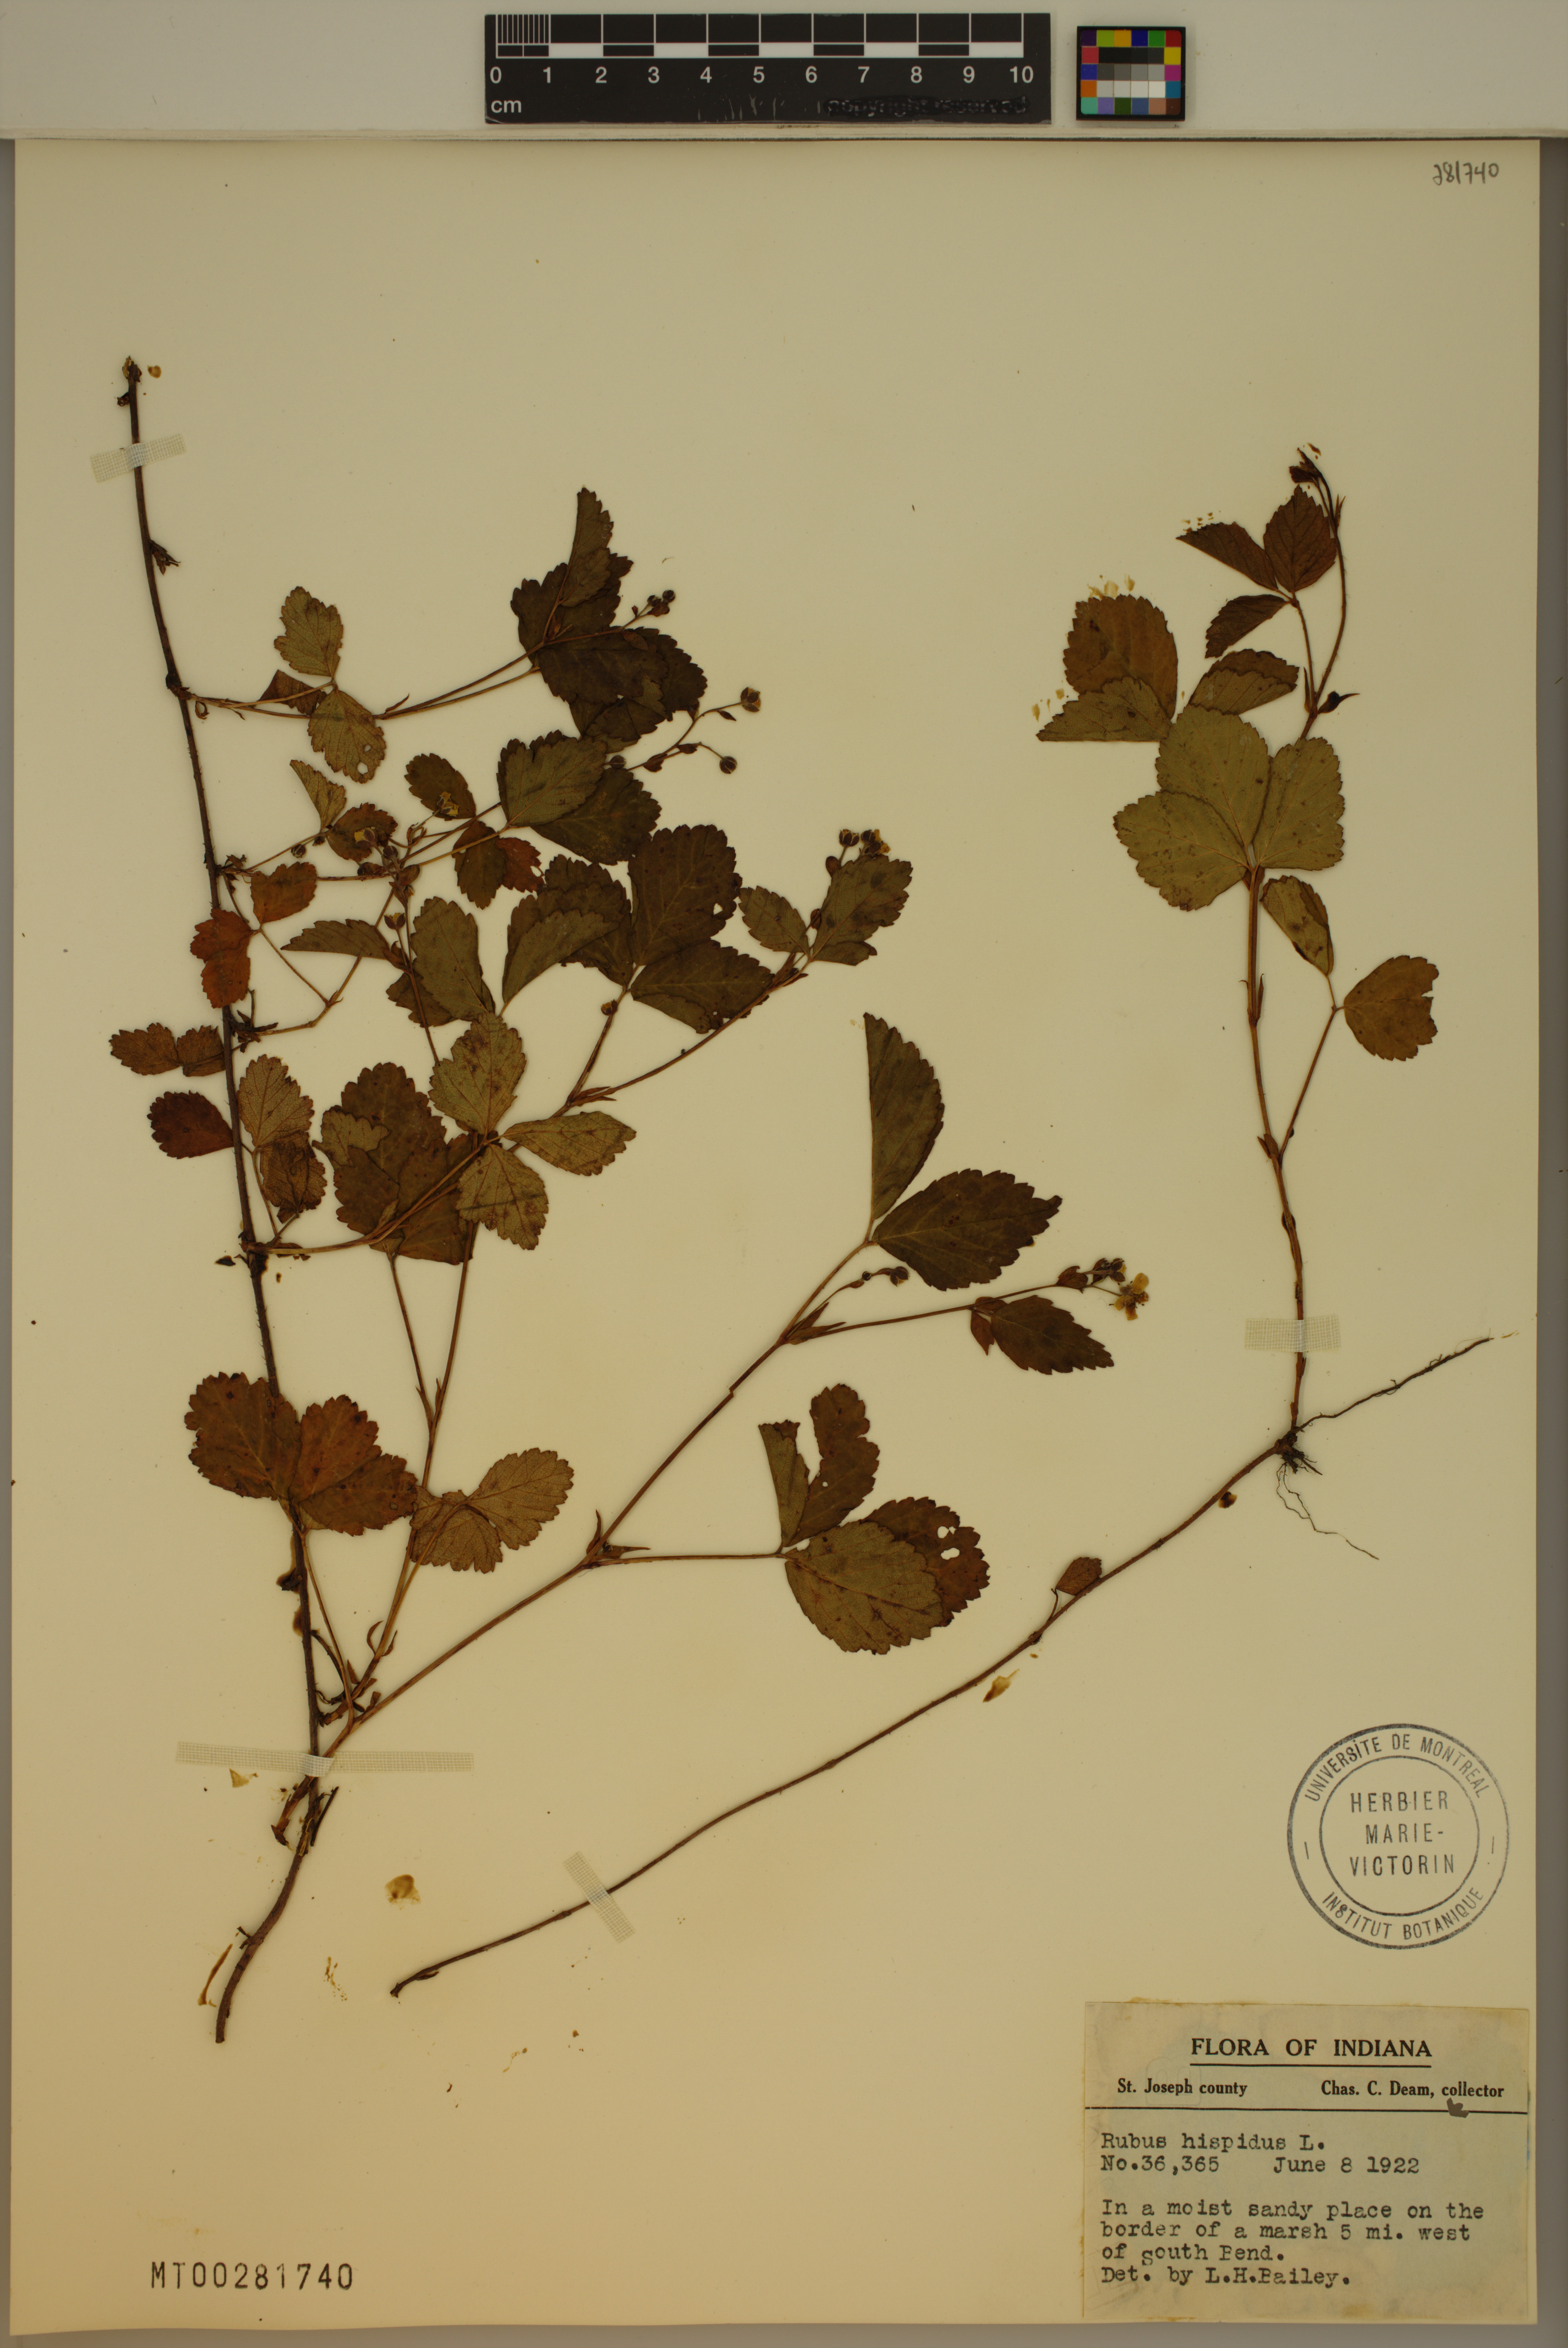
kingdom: Plantae
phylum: Tracheophyta
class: Magnoliopsida
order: Rosales
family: Rosaceae
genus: Rubus
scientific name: Rubus hispidus
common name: Running blackberry
